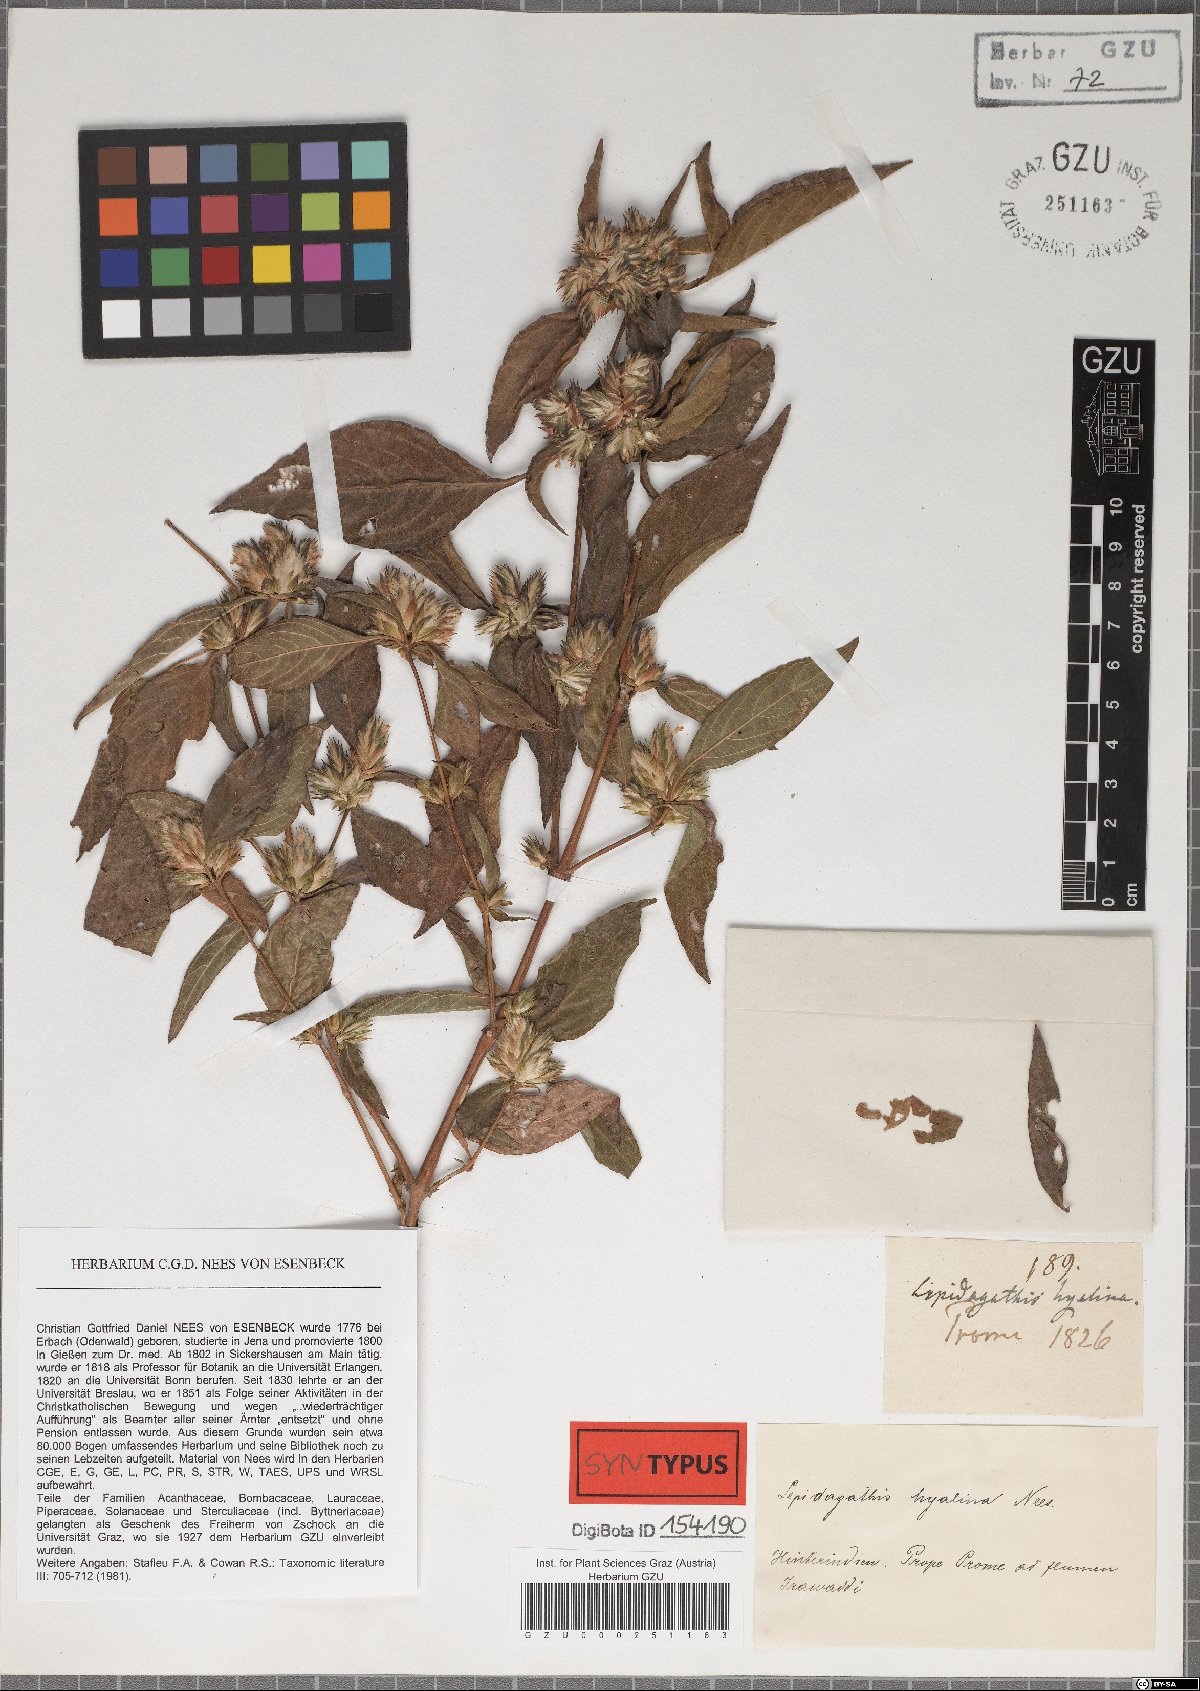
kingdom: Plantae
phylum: Tracheophyta
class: Magnoliopsida
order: Lamiales
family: Acanthaceae
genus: Lepidagathis
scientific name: Lepidagathis incurva
